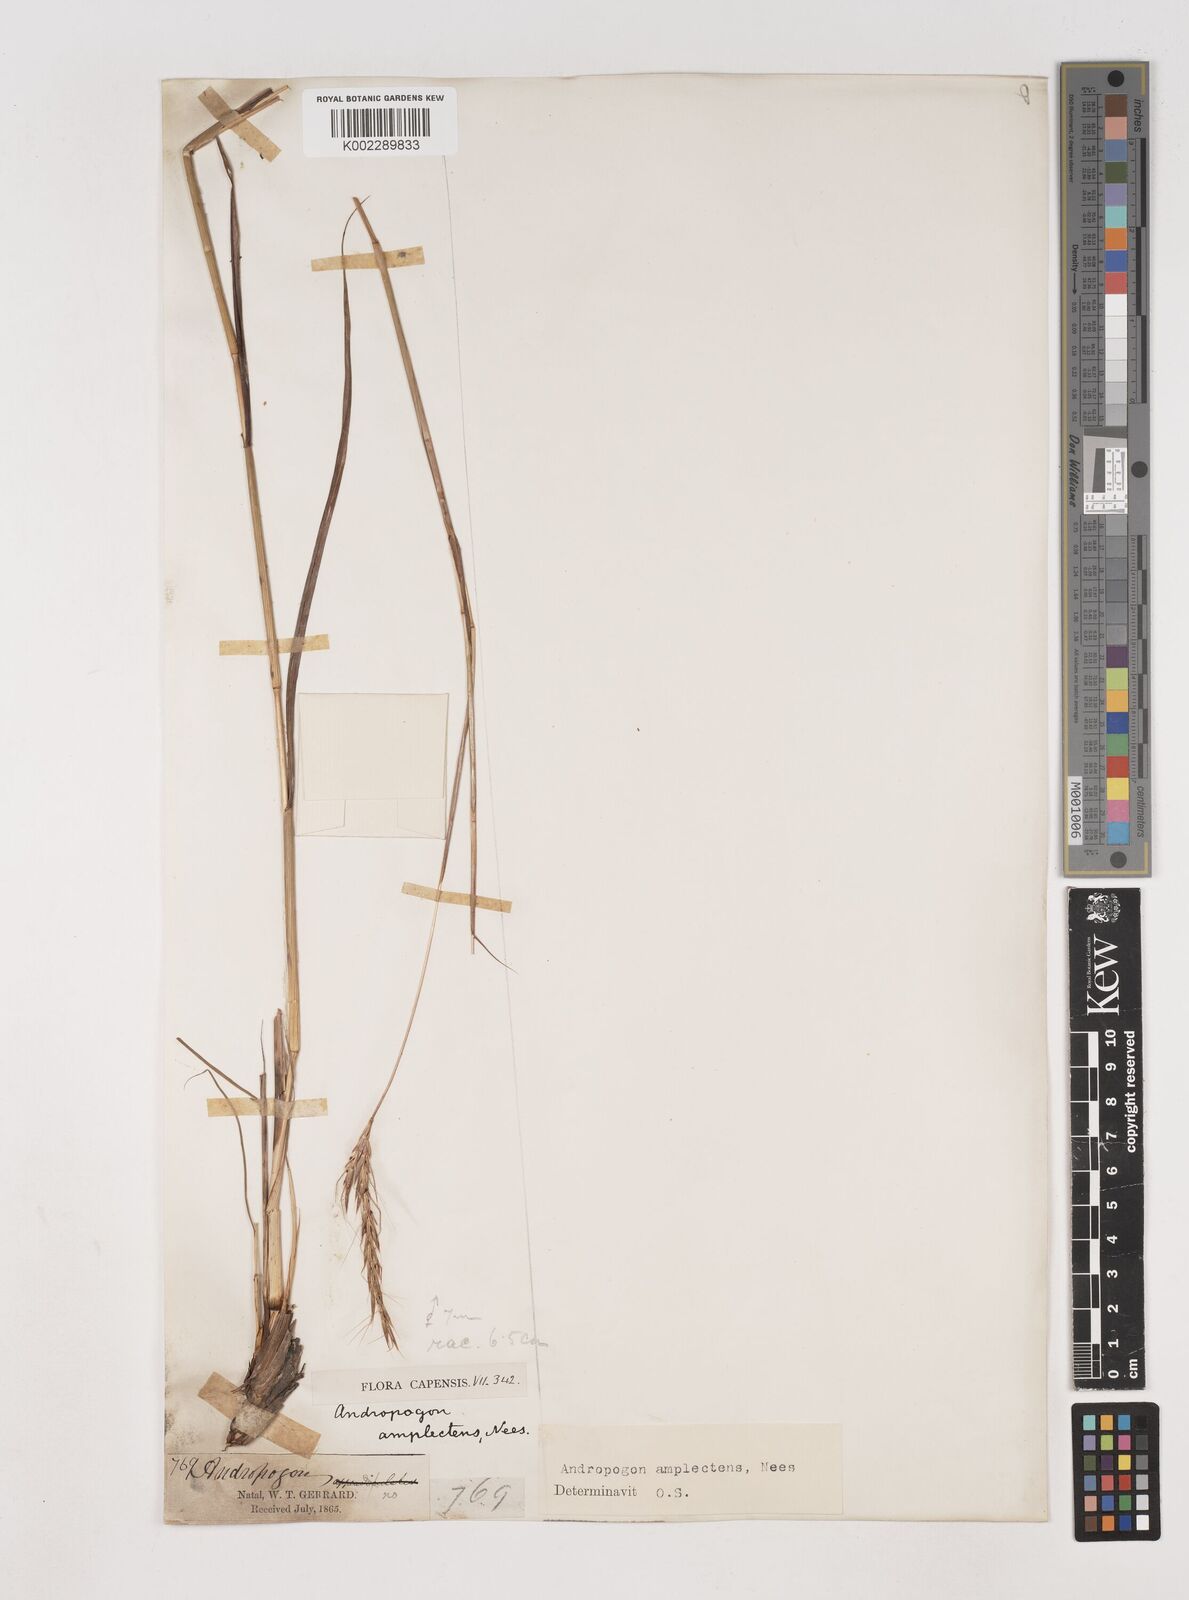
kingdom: Plantae
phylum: Tracheophyta
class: Liliopsida
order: Poales
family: Poaceae
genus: Diheteropogon
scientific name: Diheteropogon amplectens
